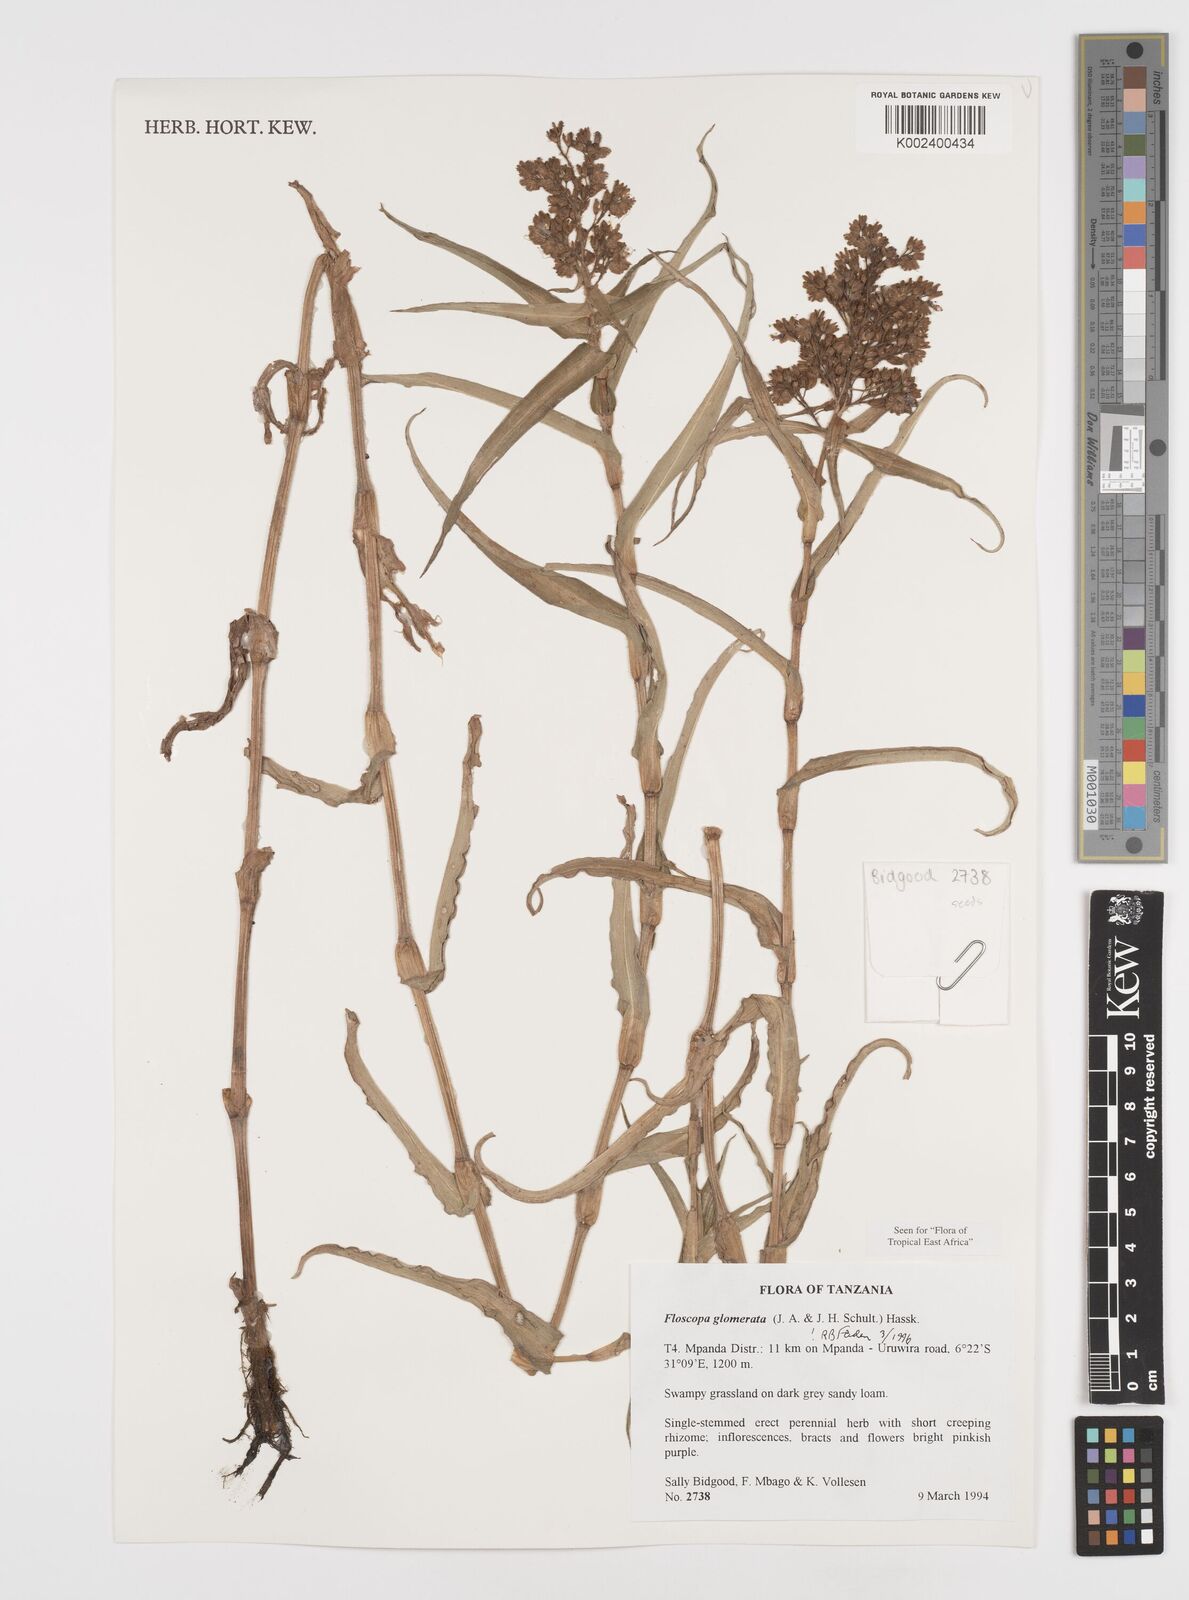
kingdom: Plantae
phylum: Tracheophyta
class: Liliopsida
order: Commelinales
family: Commelinaceae
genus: Floscopa
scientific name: Floscopa glomerata
